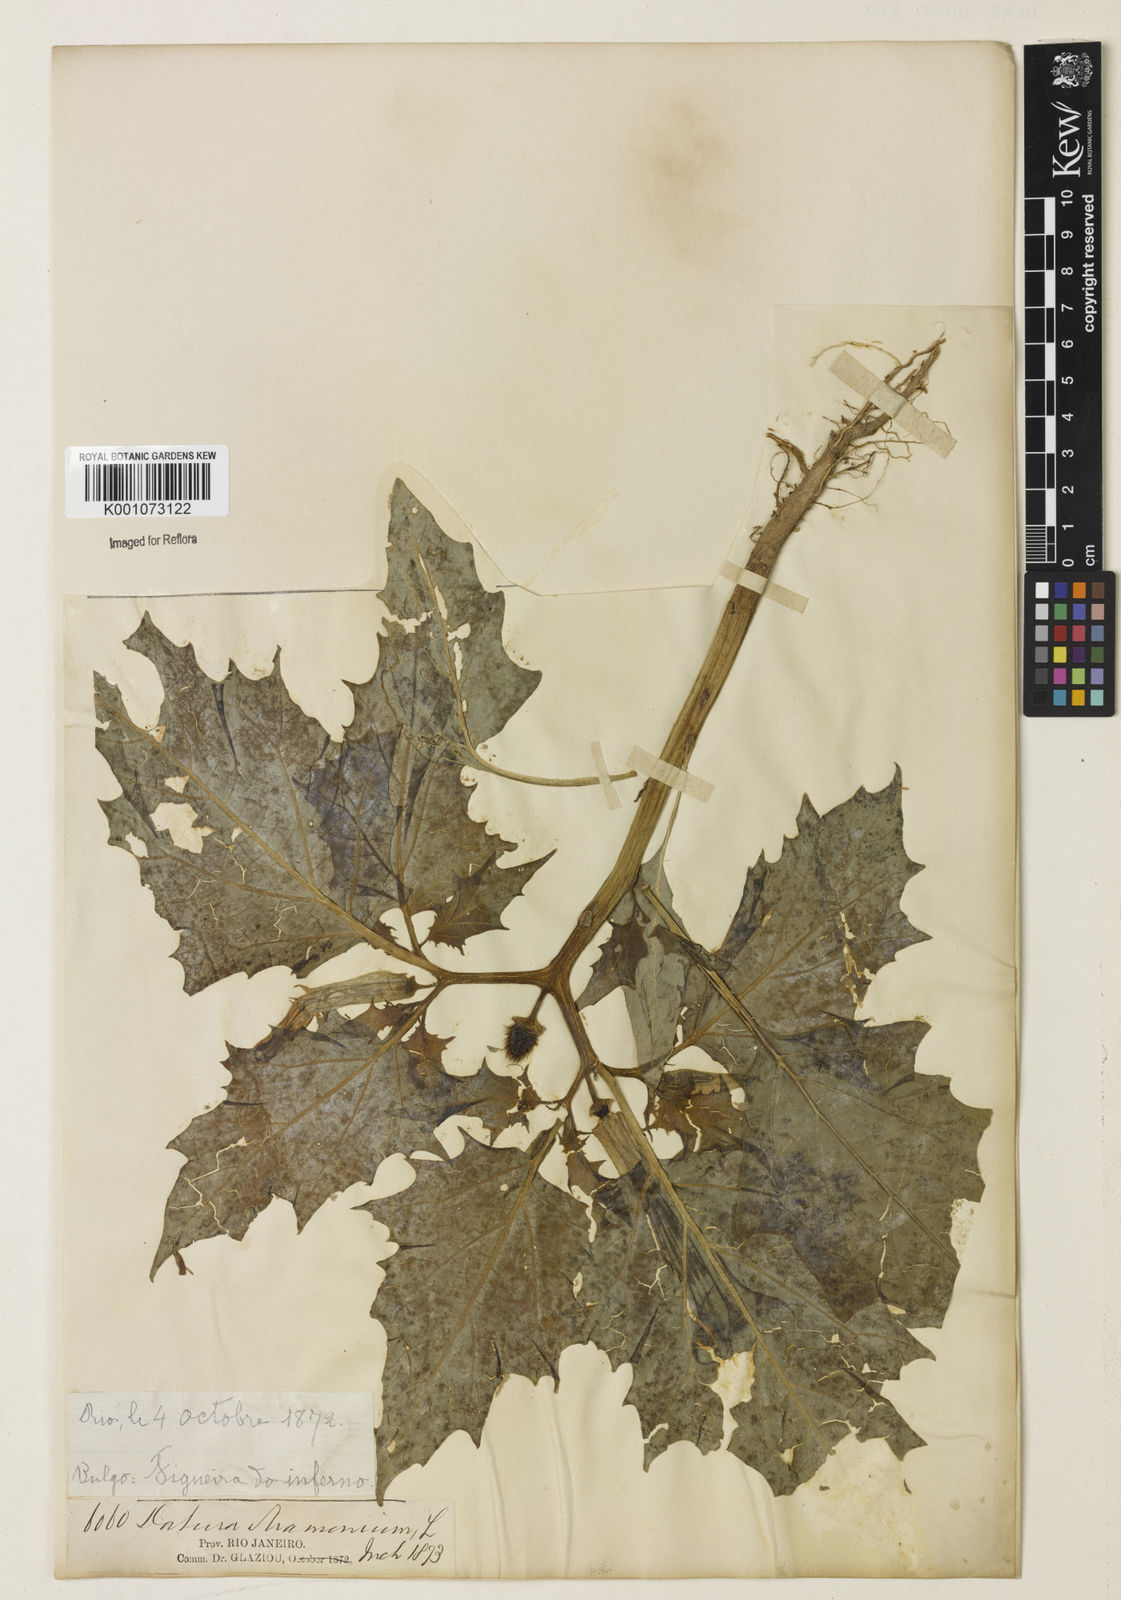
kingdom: Plantae
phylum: Tracheophyta
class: Magnoliopsida
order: Solanales
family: Solanaceae
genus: Datura
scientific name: Datura stramonium
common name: Thorn-apple
